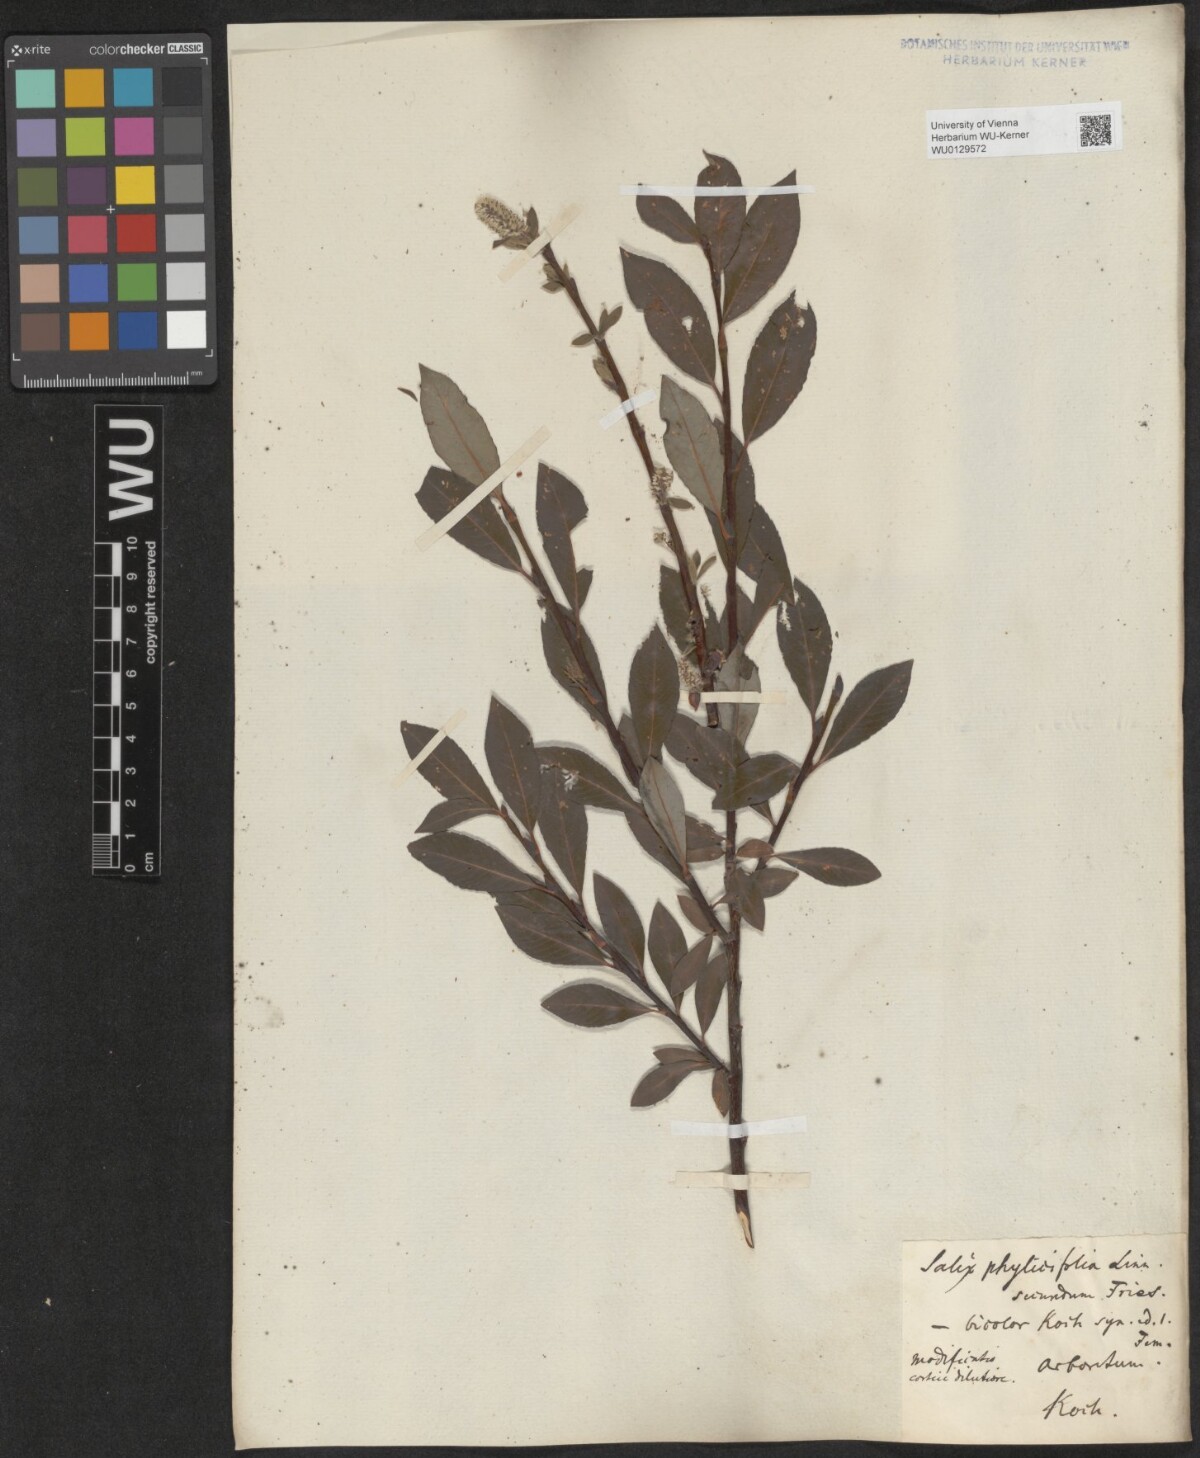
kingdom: Plantae
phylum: Tracheophyta
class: Magnoliopsida
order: Malpighiales
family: Salicaceae
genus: Salix
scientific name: Salix bicolor
